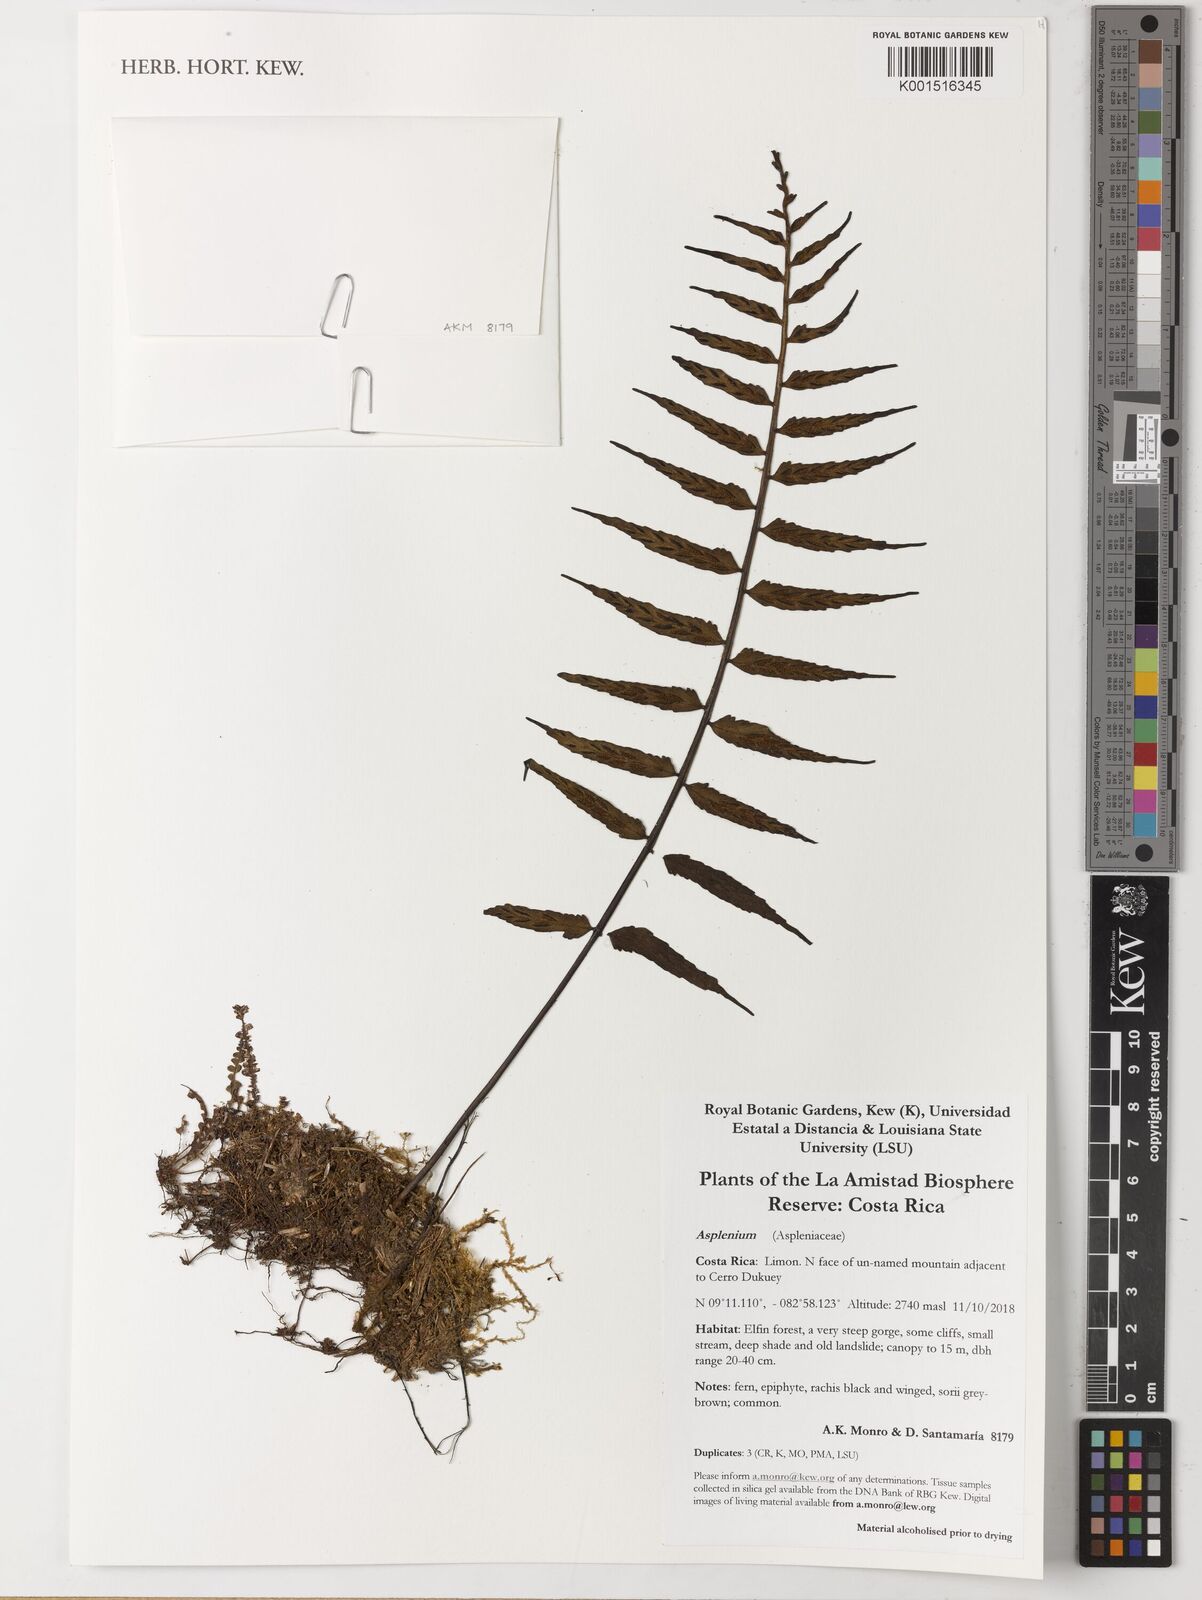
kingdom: Plantae
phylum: Tracheophyta
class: Polypodiopsida
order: Polypodiales
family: Aspleniaceae
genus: Asplenium
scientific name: Asplenium
